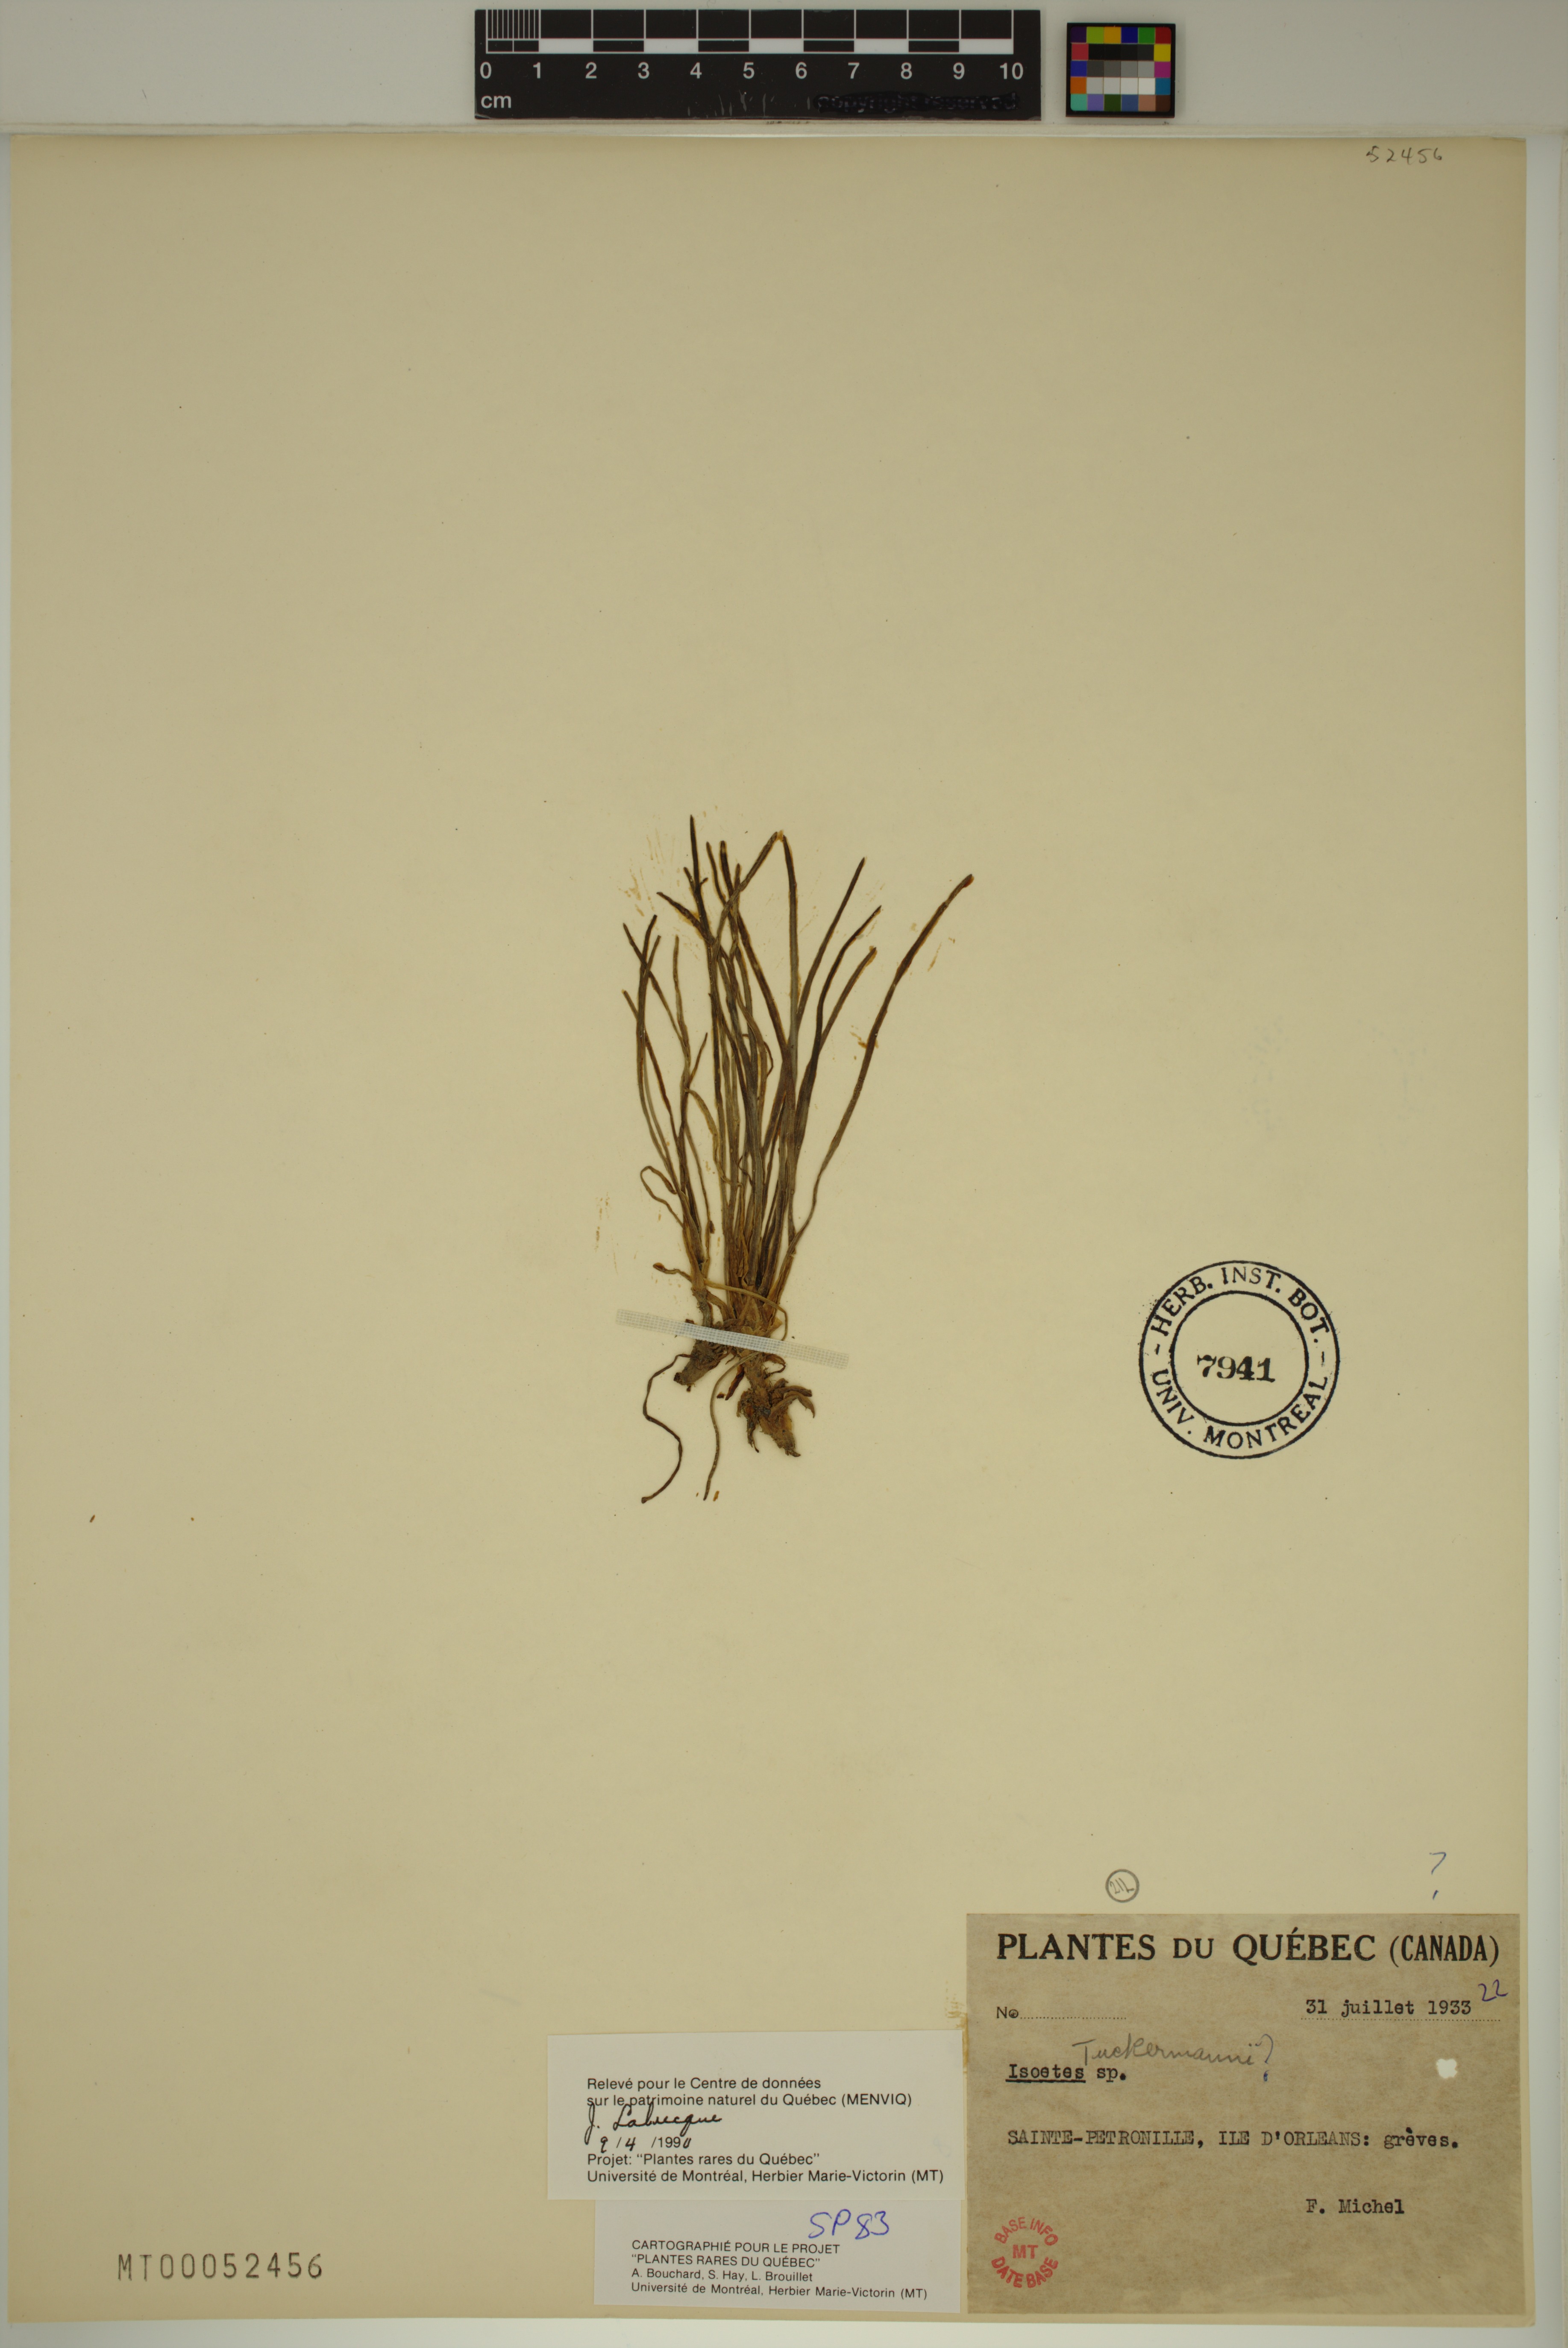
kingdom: Plantae
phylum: Tracheophyta
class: Lycopodiopsida
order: Isoetales
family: Isoetaceae
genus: Isoetes
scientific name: Isoetes laurentiana
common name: St. lawrence quillwort
